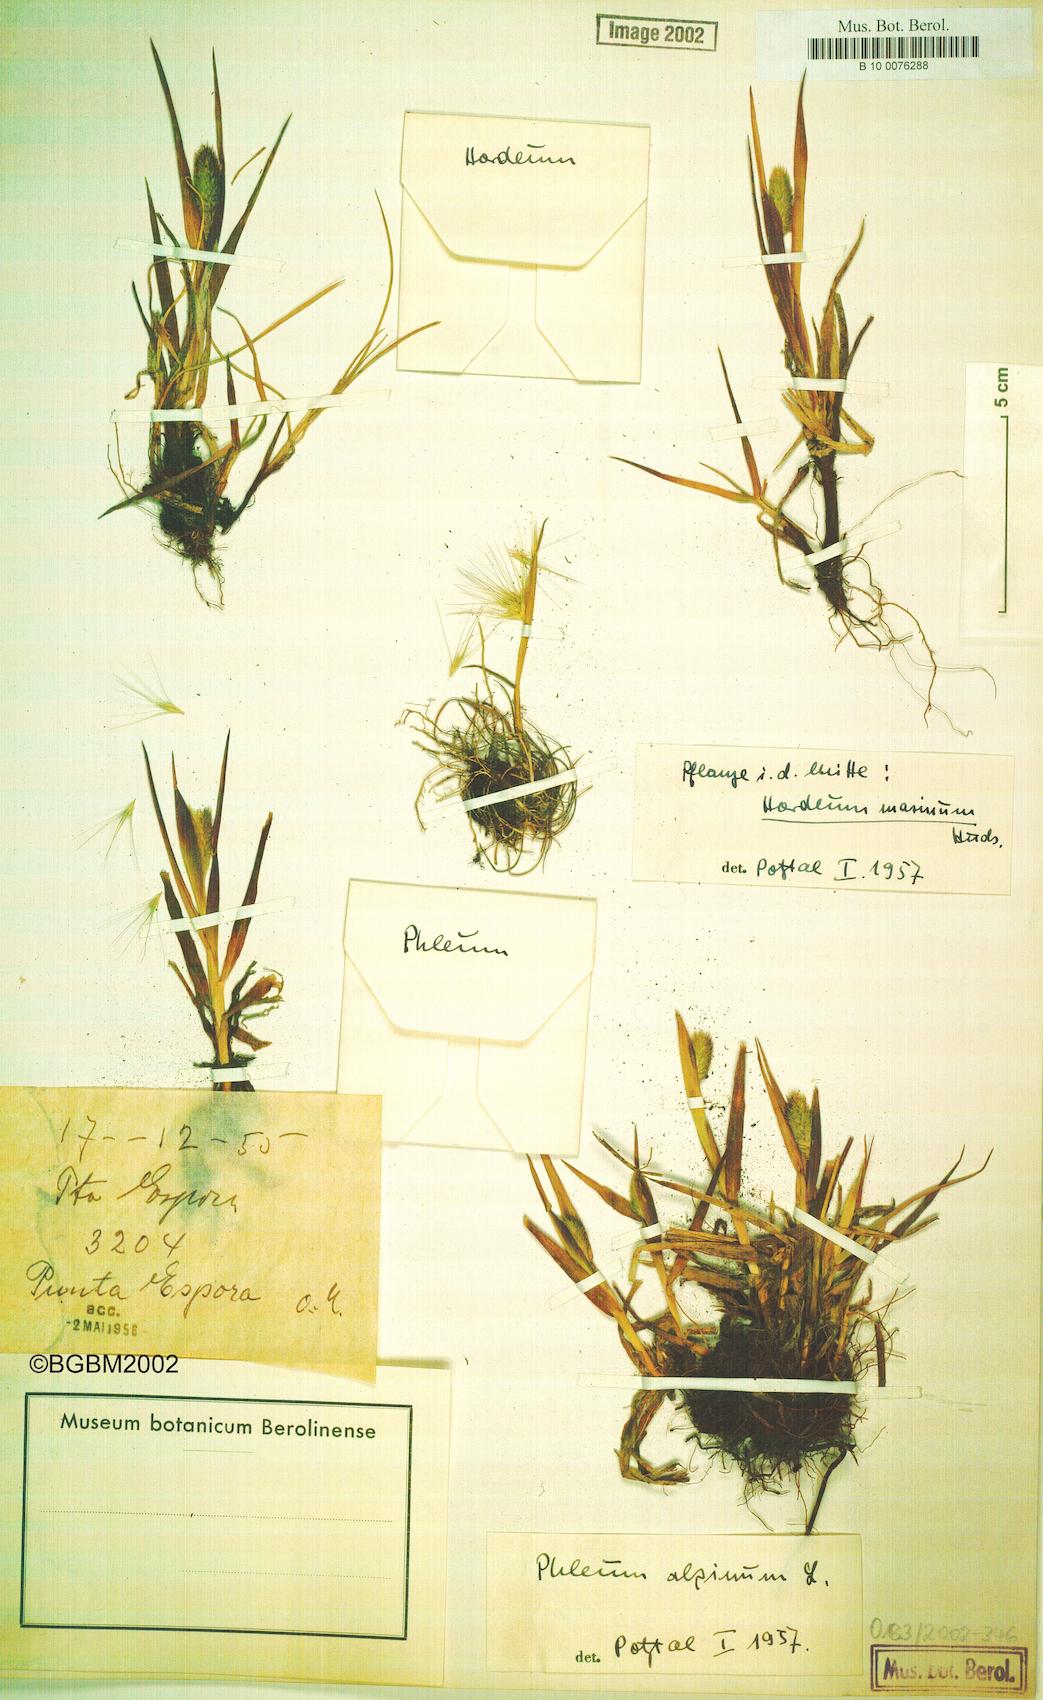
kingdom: Plantae
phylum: Tracheophyta
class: Liliopsida
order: Poales
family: Poaceae
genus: Phleum
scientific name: Phleum alpinum
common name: Alpine cat's-tail
